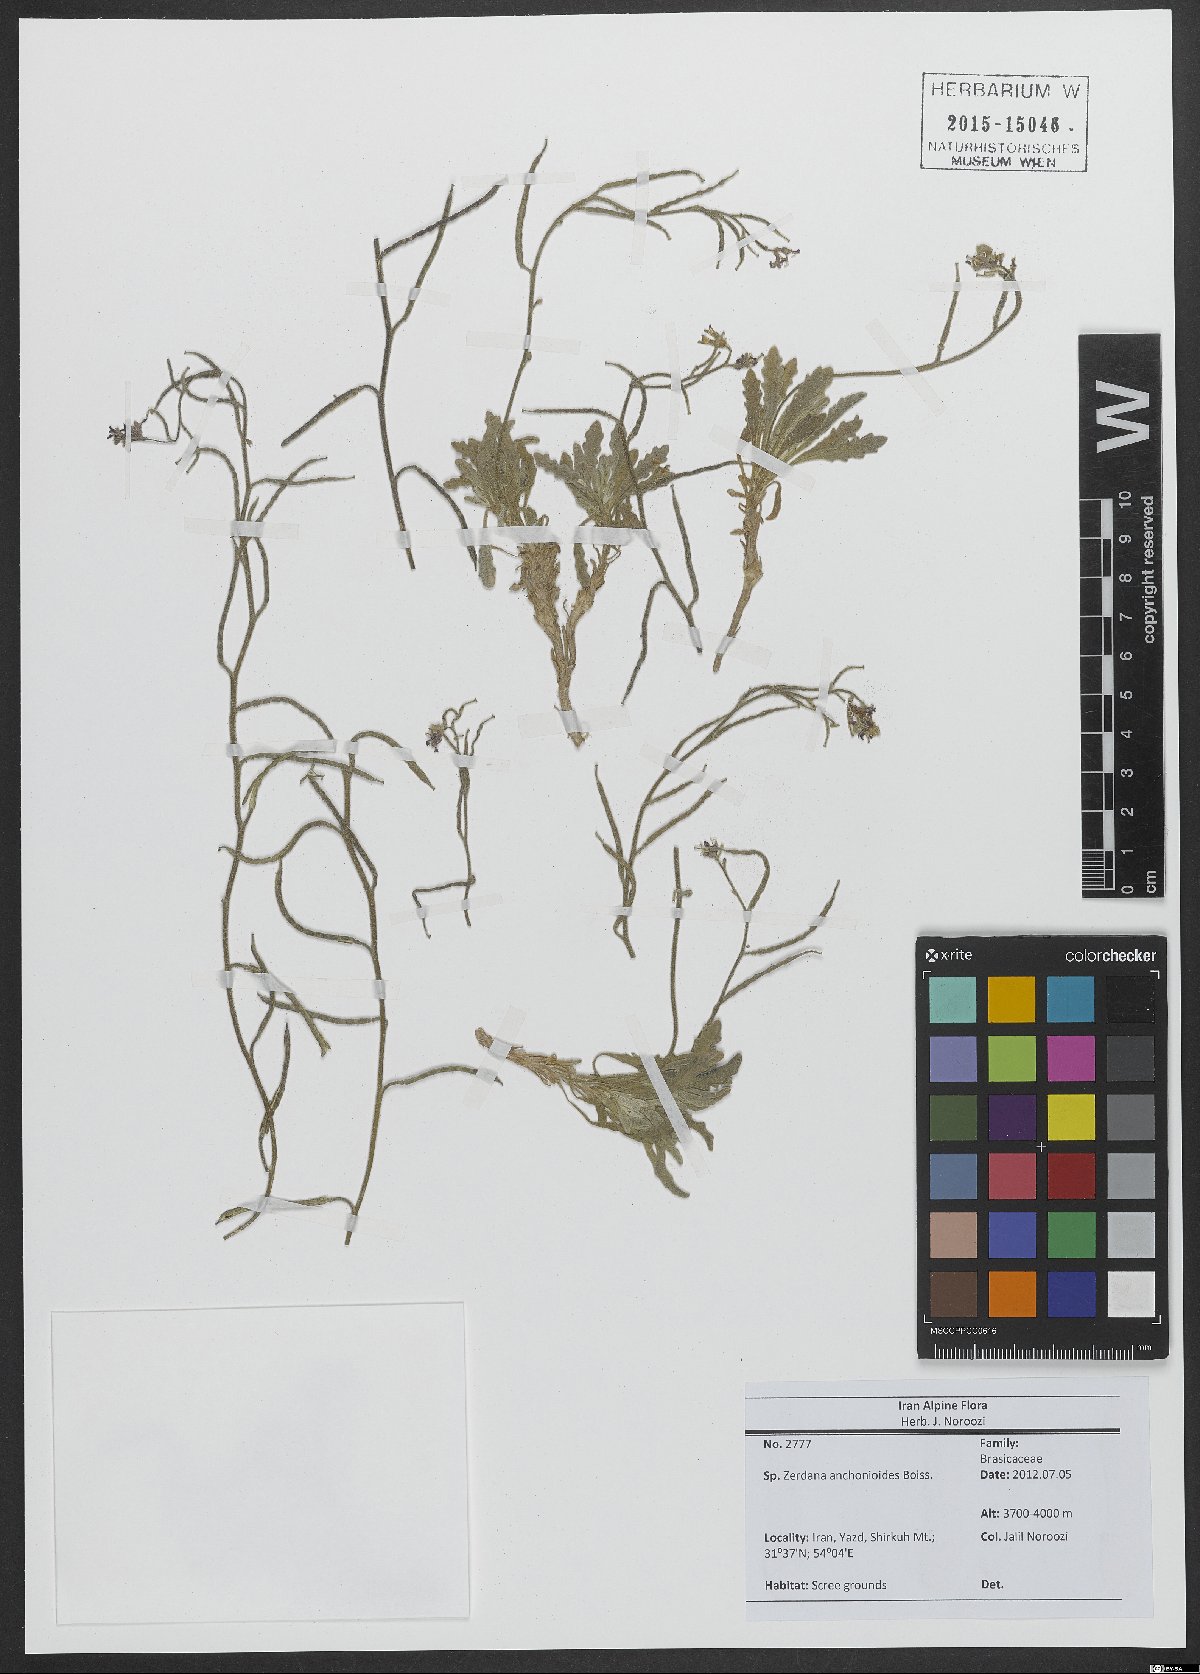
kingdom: Plantae
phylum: Tracheophyta
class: Magnoliopsida
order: Brassicales
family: Brassicaceae
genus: Zerdana
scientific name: Zerdana anchonioides
